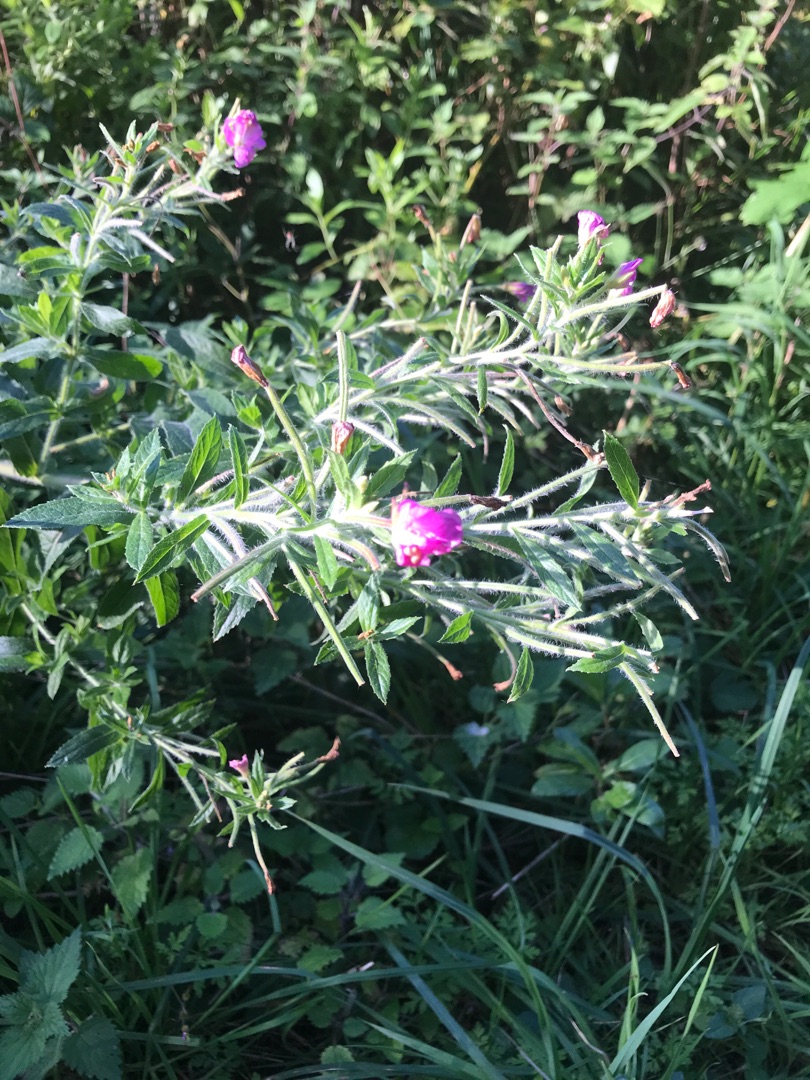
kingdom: Plantae
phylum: Tracheophyta
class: Magnoliopsida
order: Myrtales
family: Onagraceae
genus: Epilobium
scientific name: Epilobium hirsutum
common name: Lådden dueurt
